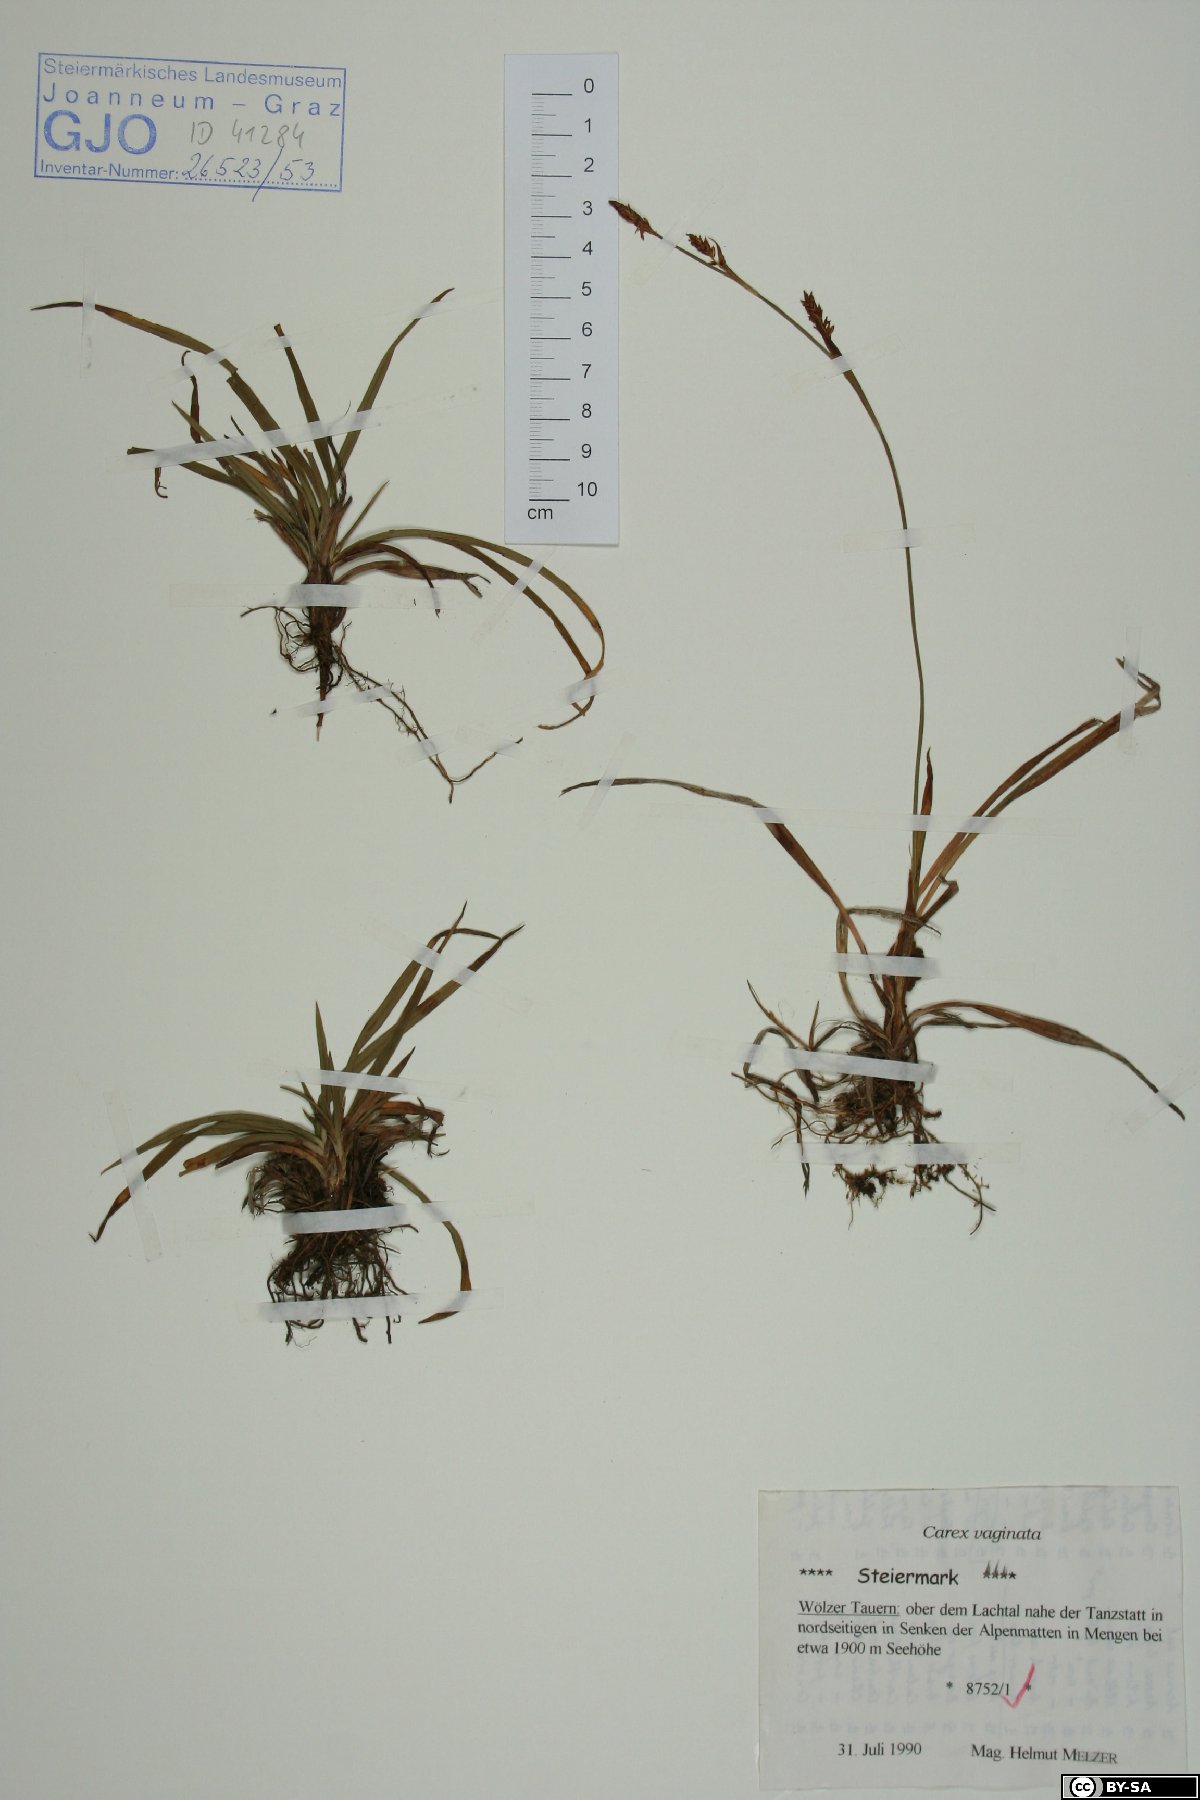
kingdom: Plantae
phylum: Tracheophyta
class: Liliopsida
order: Poales
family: Cyperaceae
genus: Carex
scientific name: Carex vaginata
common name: Sheathed sedge
